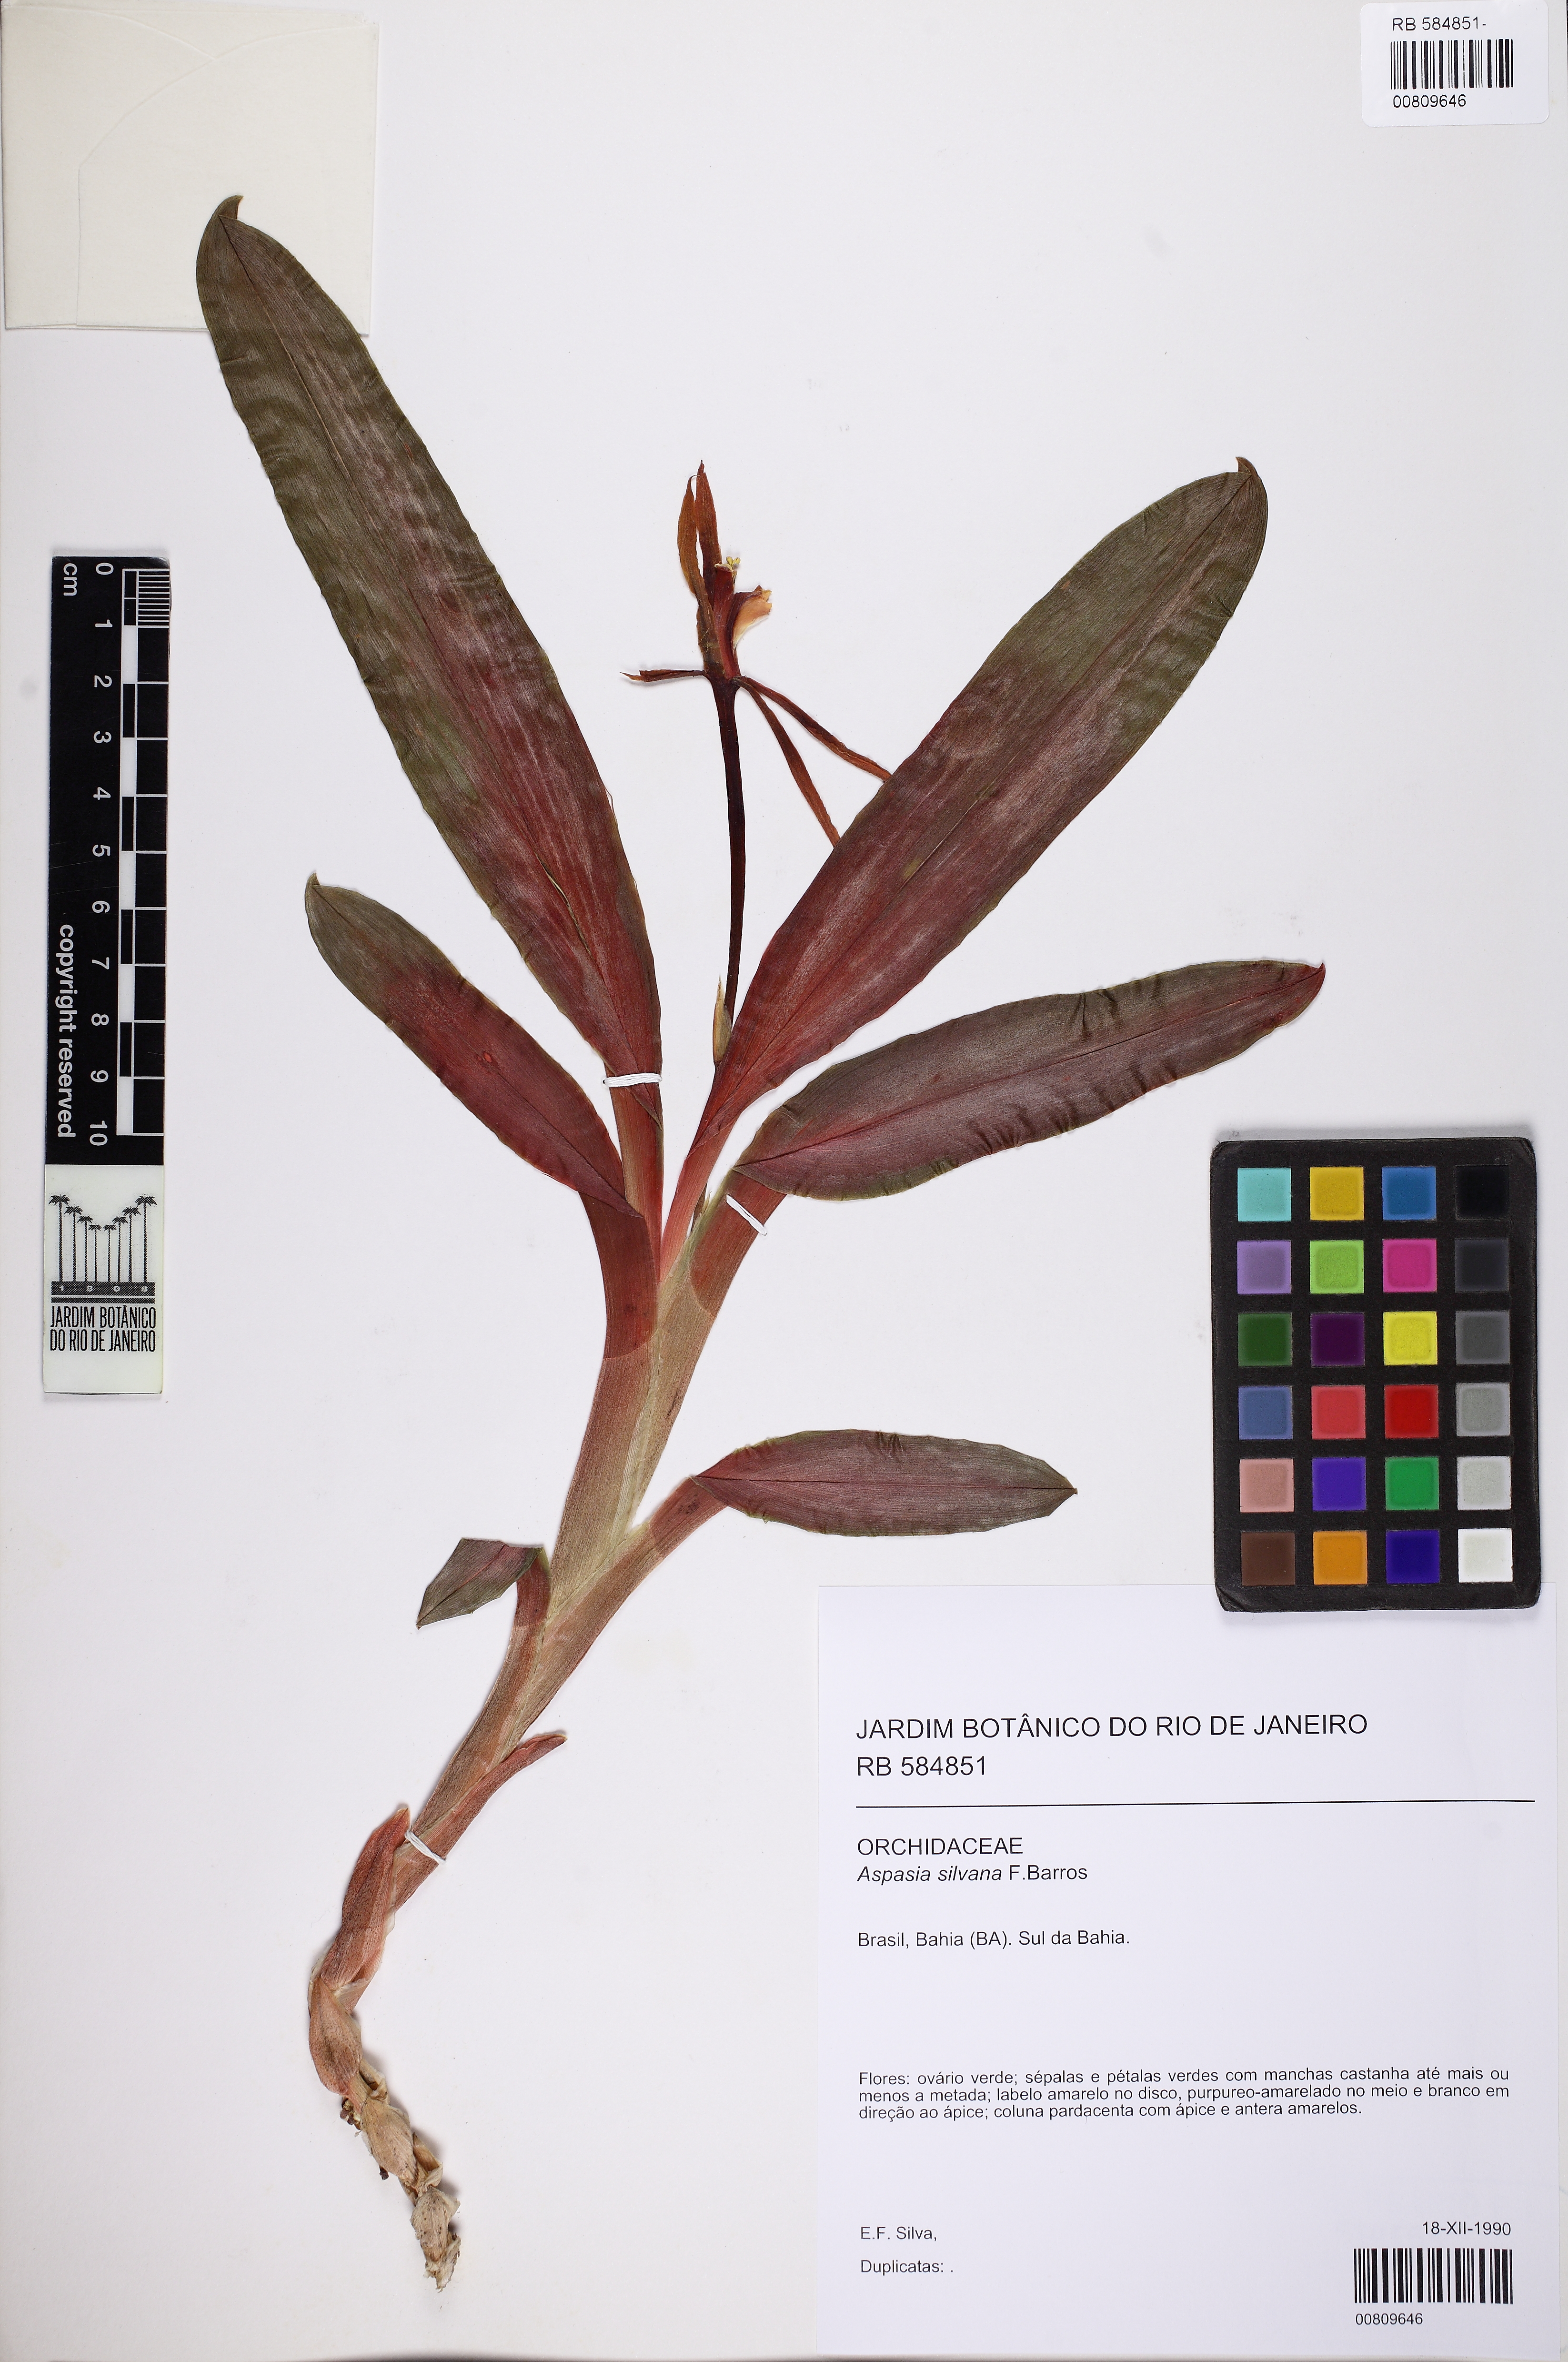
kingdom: Plantae
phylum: Tracheophyta
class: Liliopsida
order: Asparagales
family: Orchidaceae
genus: Aspasia
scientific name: Aspasia silvana
